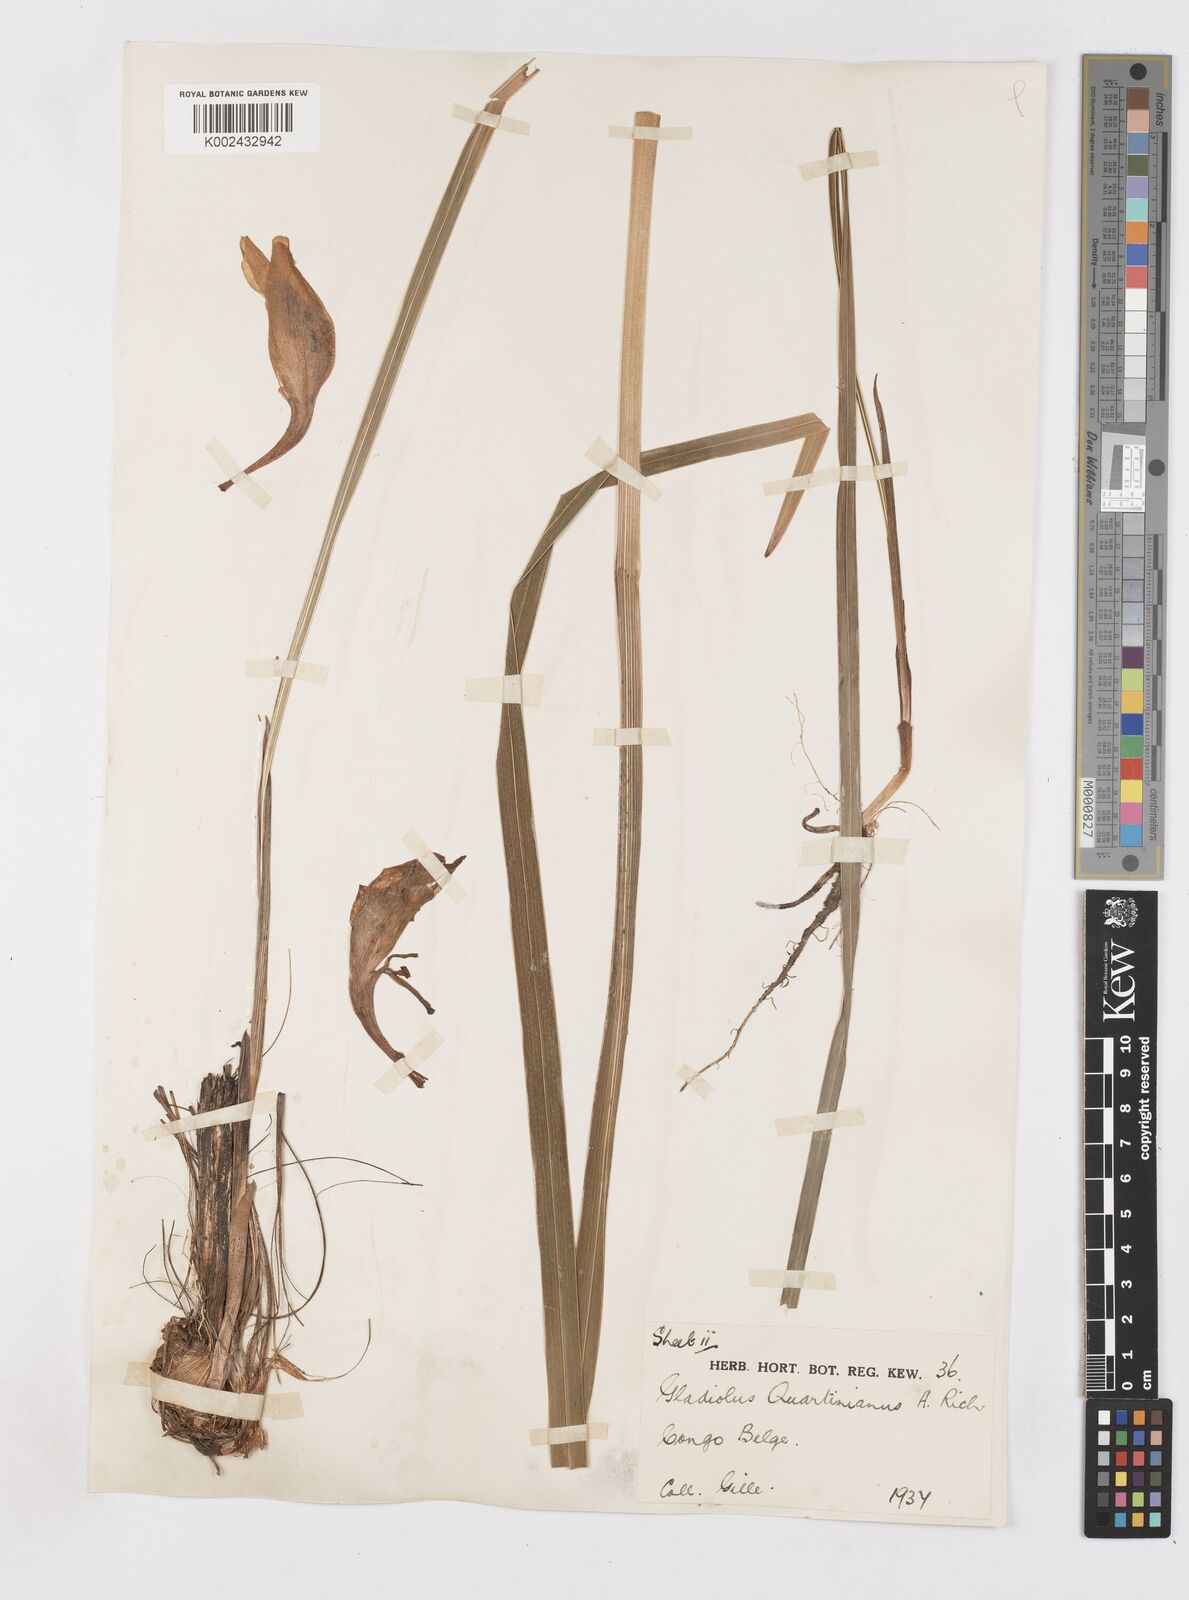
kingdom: Plantae
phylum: Tracheophyta
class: Liliopsida
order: Asparagales
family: Iridaceae
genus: Gladiolus
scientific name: Gladiolus dalenii
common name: Cornflag
